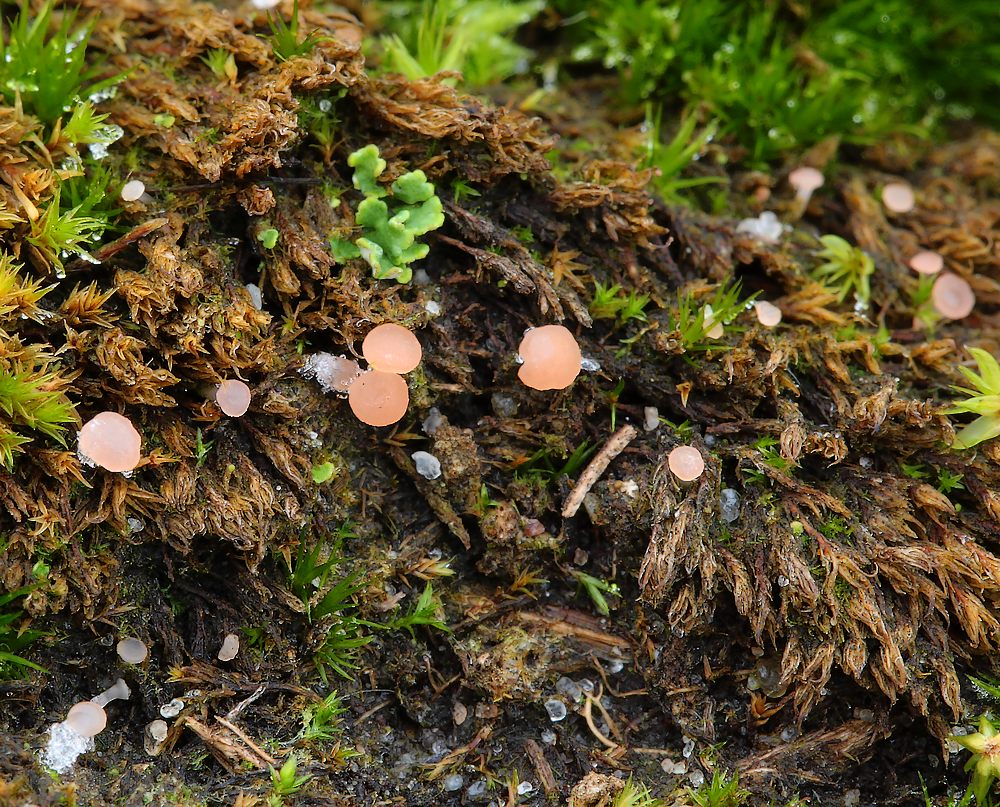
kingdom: Fungi
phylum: Ascomycota
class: Leotiomycetes
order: Helotiales
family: Hyaloscyphaceae
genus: Roseodiscus
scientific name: Roseodiscus formosus
